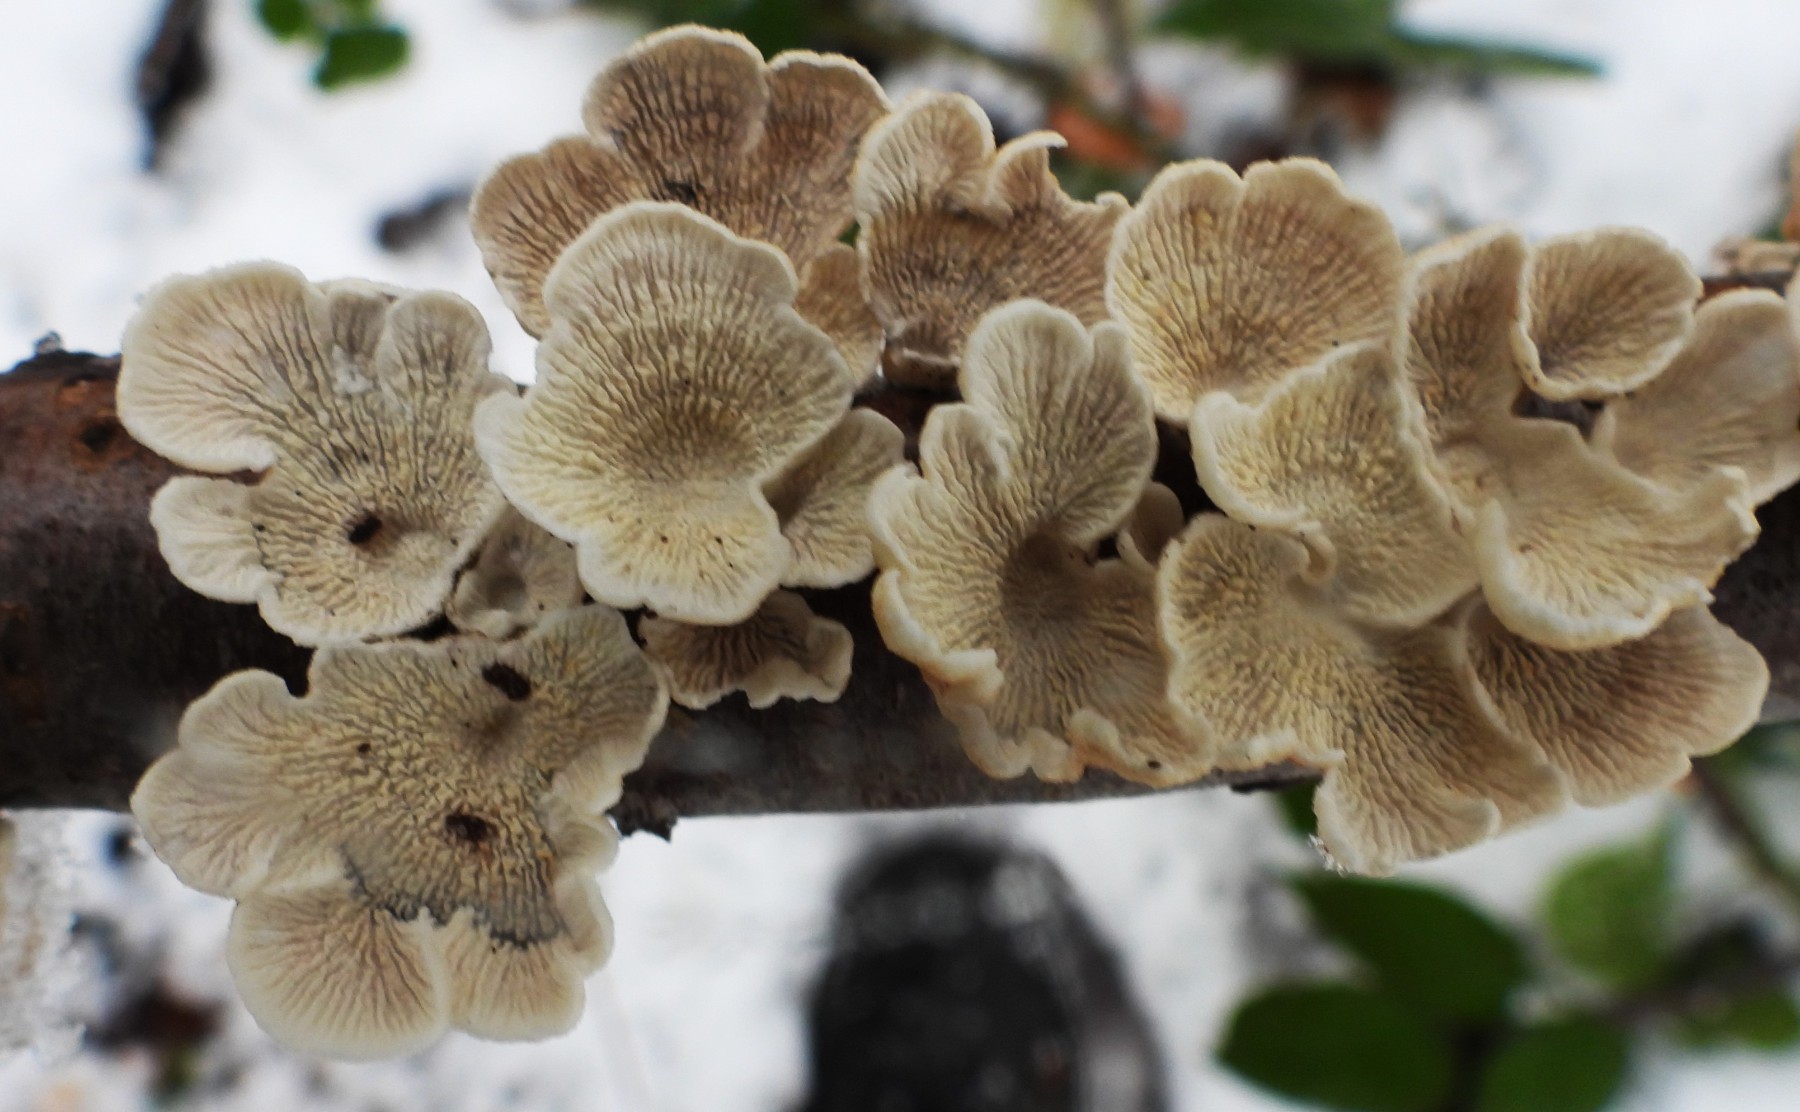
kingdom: Fungi
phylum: Basidiomycota
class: Agaricomycetes
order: Amylocorticiales
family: Amylocorticiaceae
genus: Plicaturopsis
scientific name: Plicaturopsis crispa
